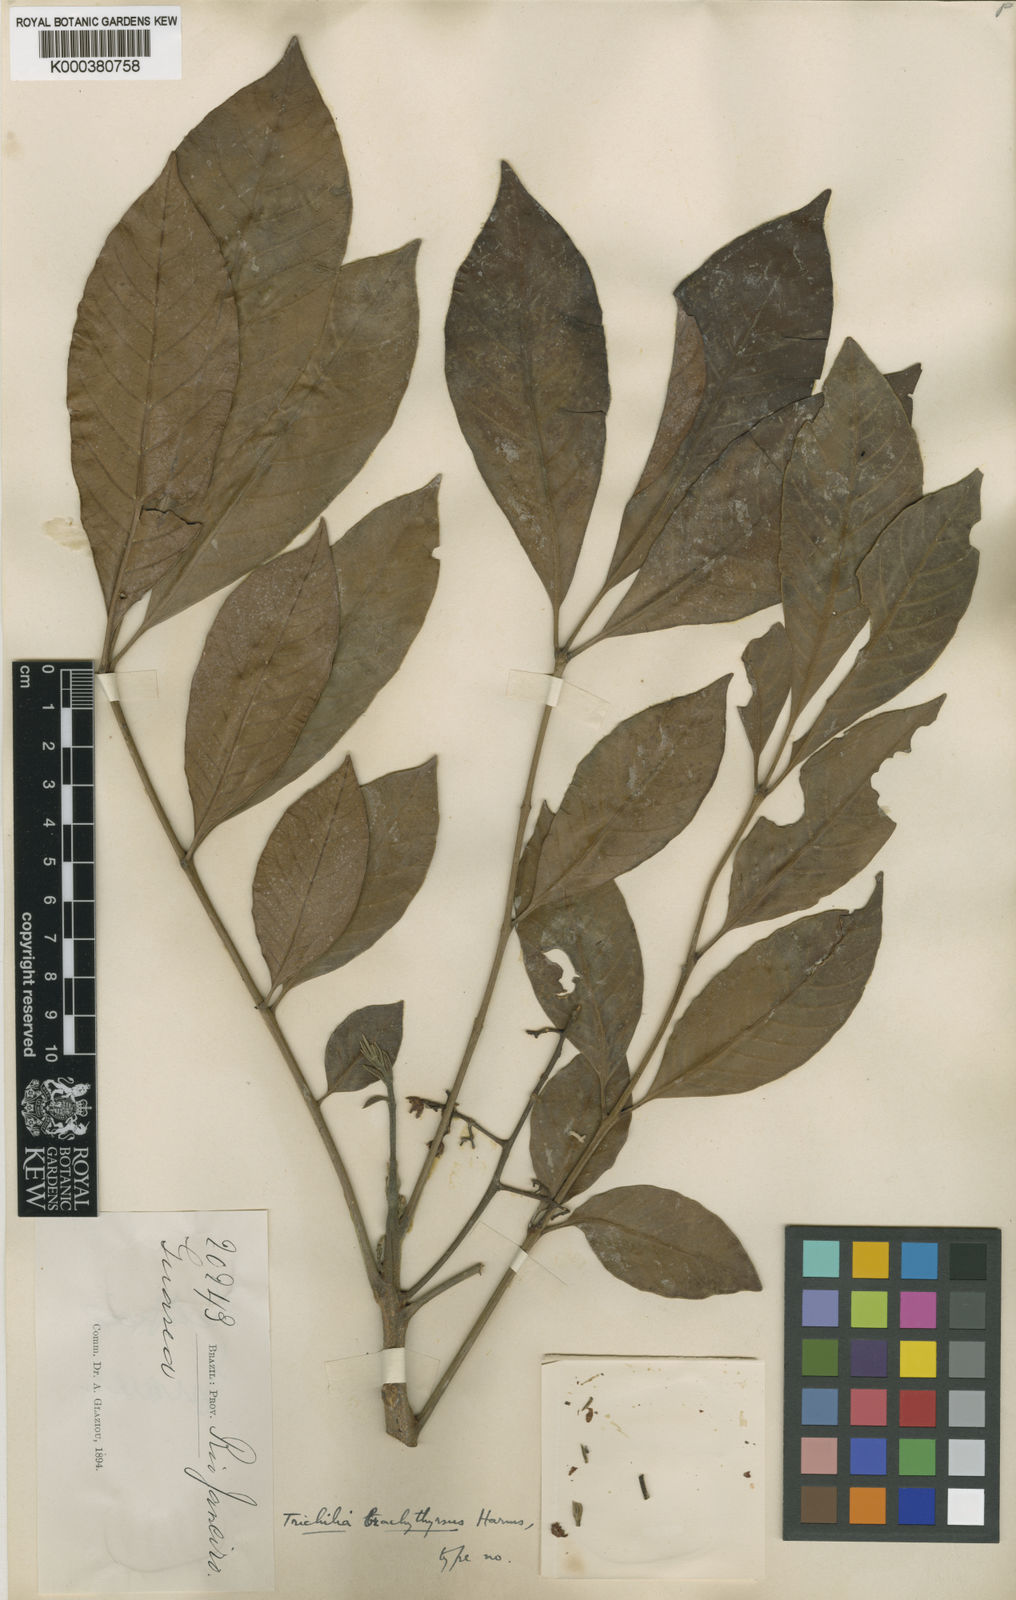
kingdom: Plantae
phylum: Tracheophyta
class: Magnoliopsida
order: Sapindales
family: Meliaceae
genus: Trichilia
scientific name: Trichilia pallens
